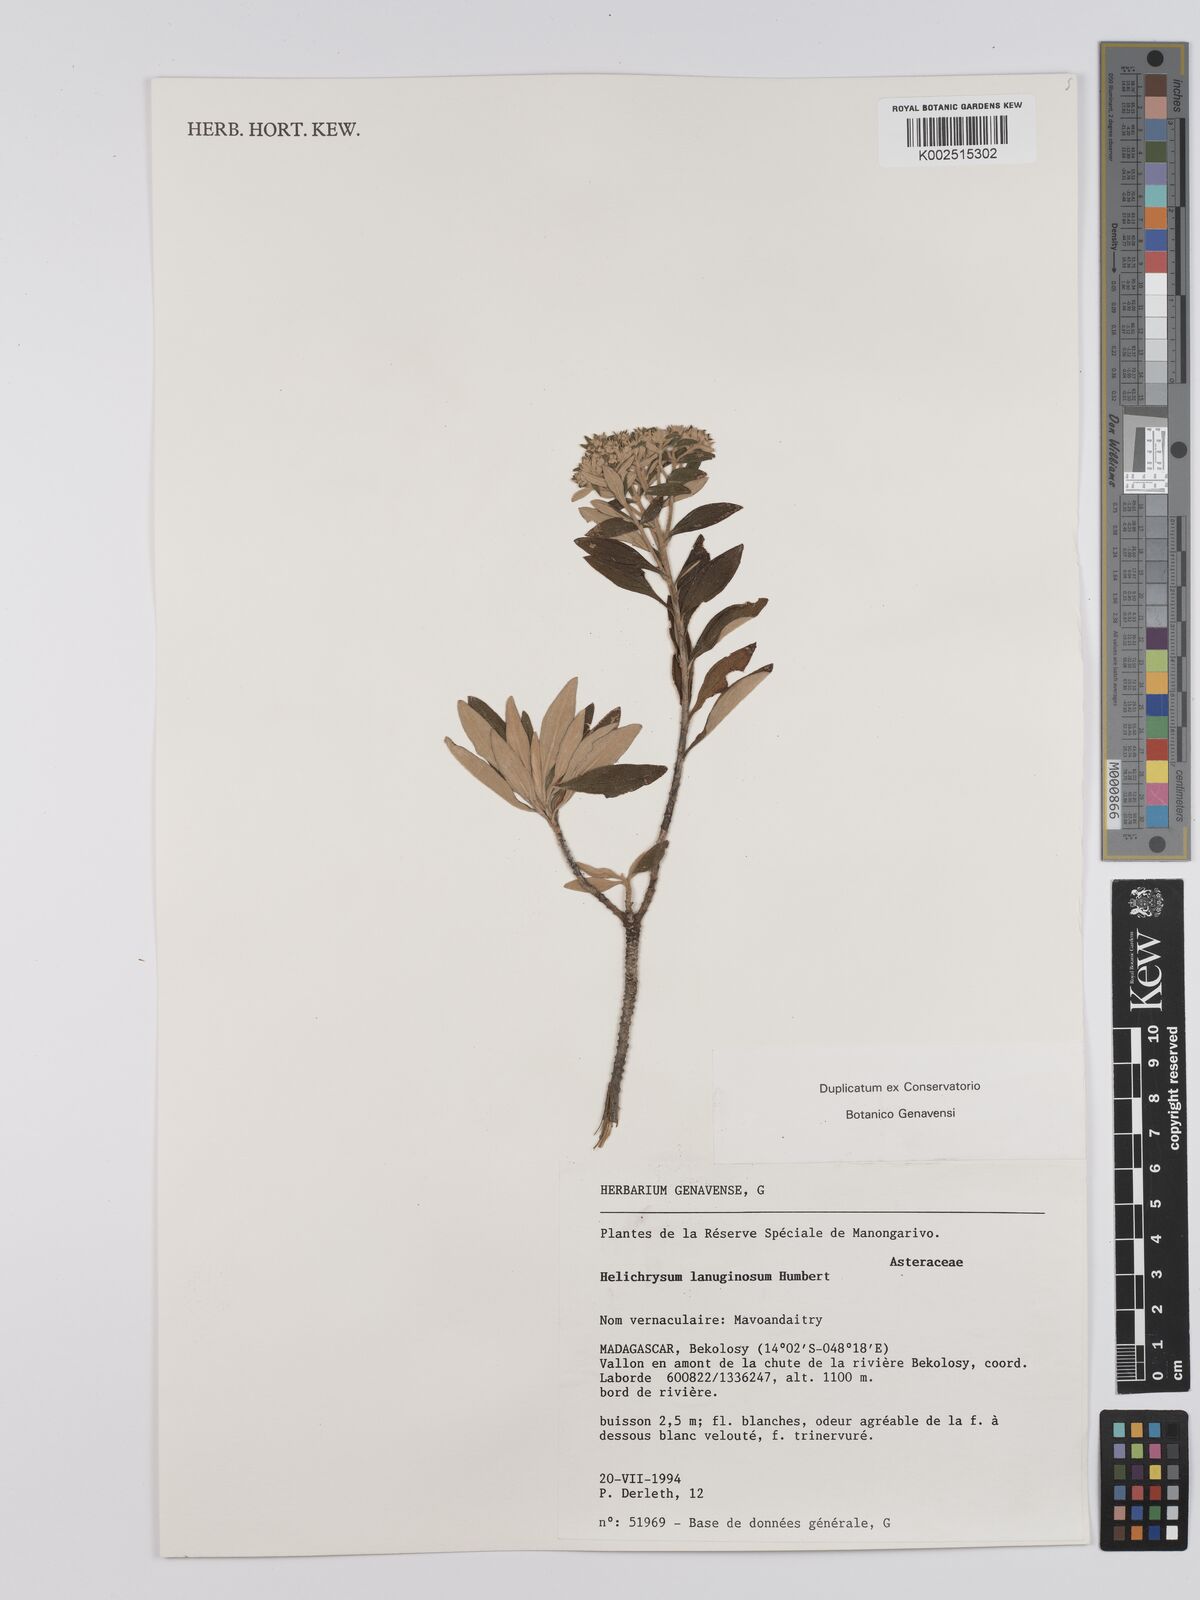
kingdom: Plantae
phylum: Tracheophyta
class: Magnoliopsida
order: Asterales
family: Asteraceae
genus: Helichrysum
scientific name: Helichrysum lanuginosum
